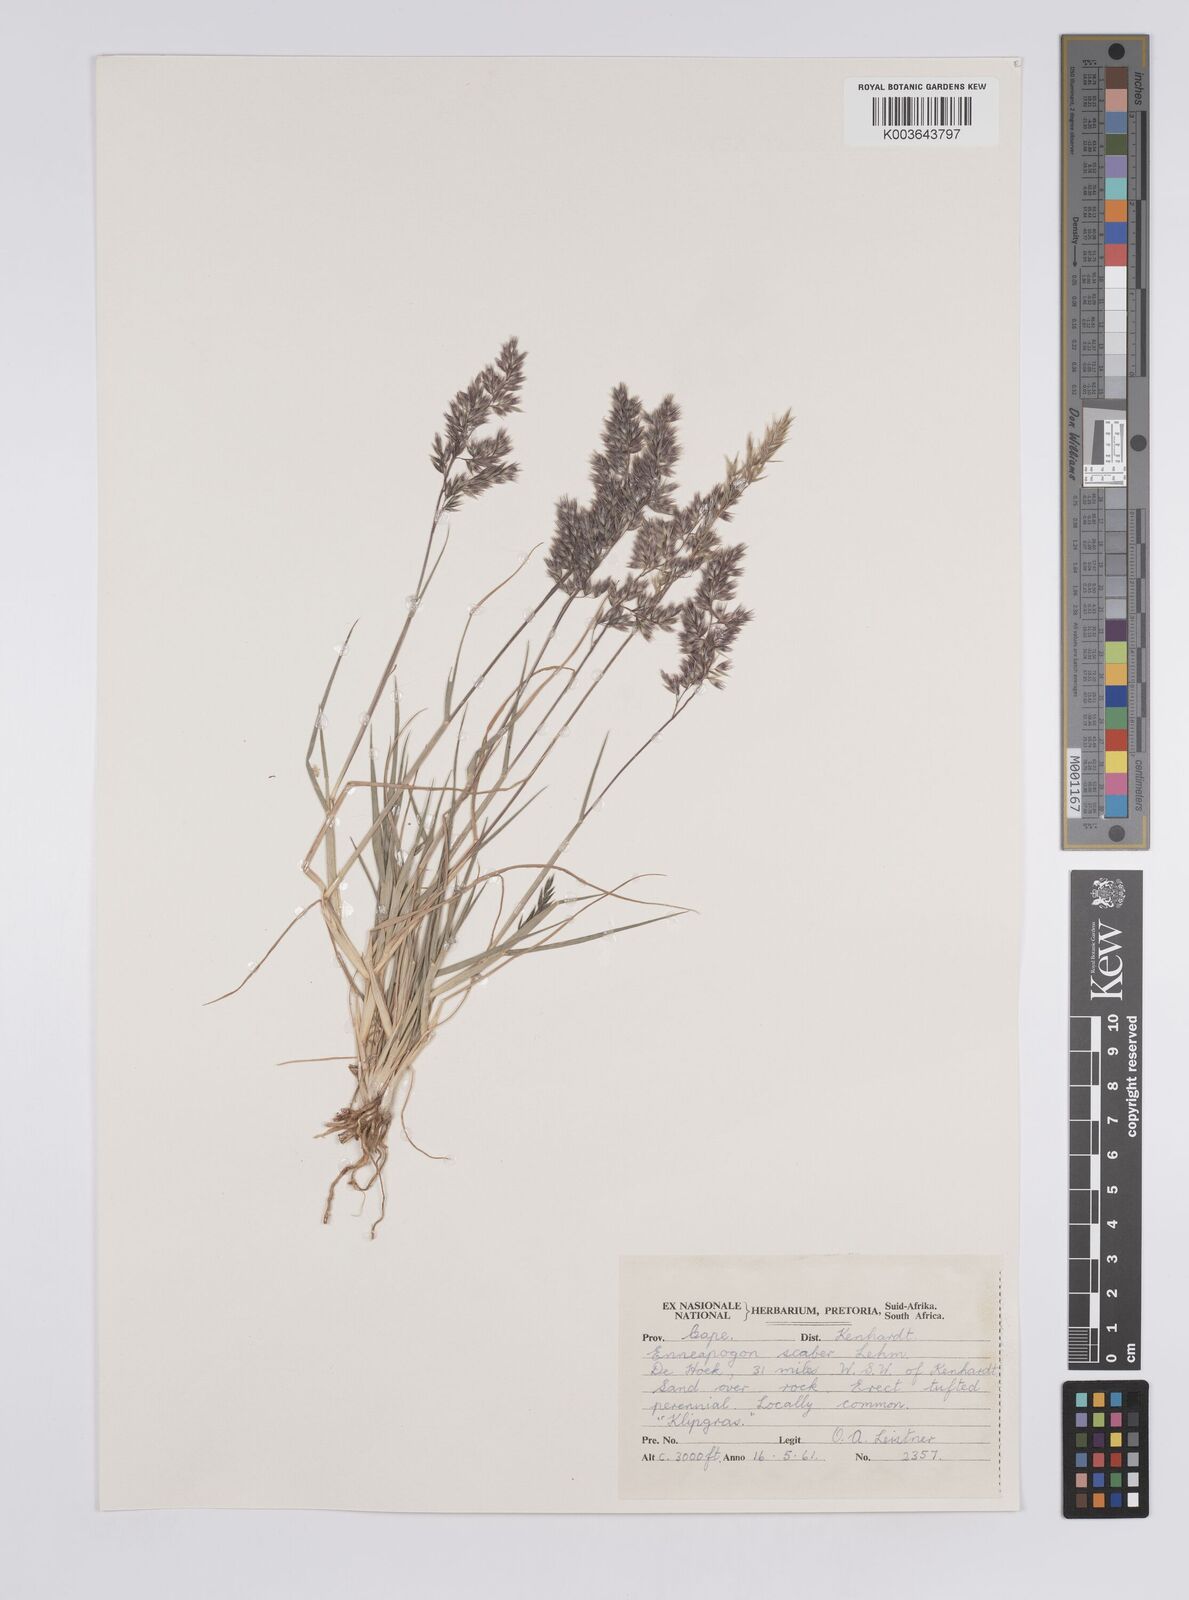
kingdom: Plantae
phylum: Tracheophyta
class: Liliopsida
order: Poales
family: Poaceae
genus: Enneapogon
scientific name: Enneapogon scaber
